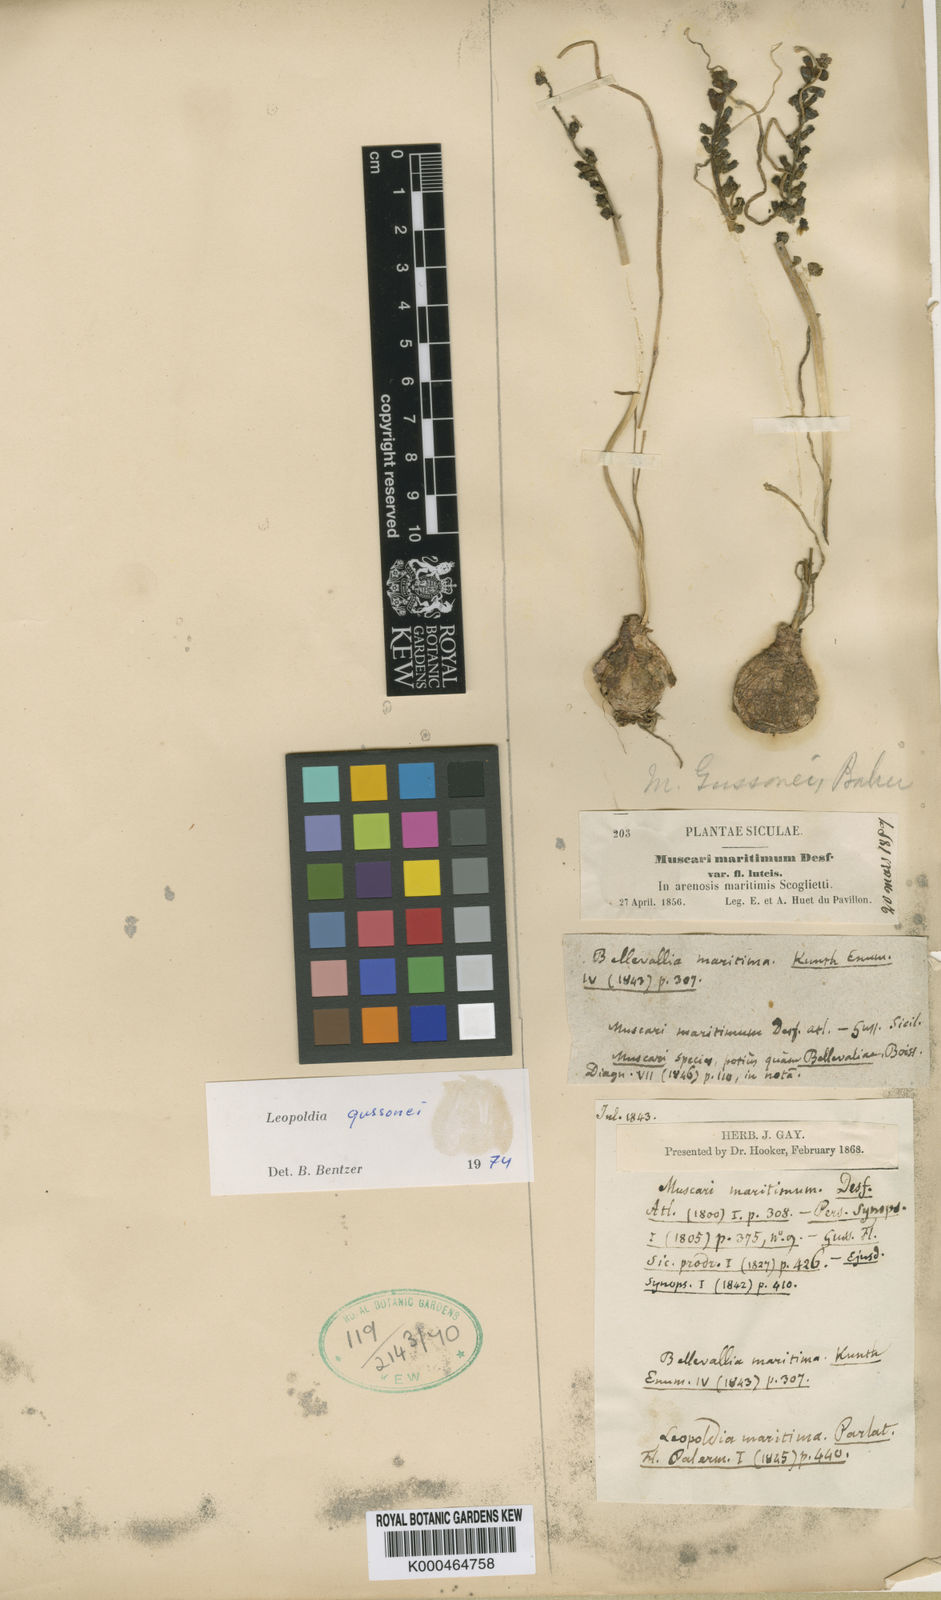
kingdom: Plantae
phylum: Tracheophyta
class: Liliopsida
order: Asparagales
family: Asparagaceae
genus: Muscari
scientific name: Muscari gussonei
